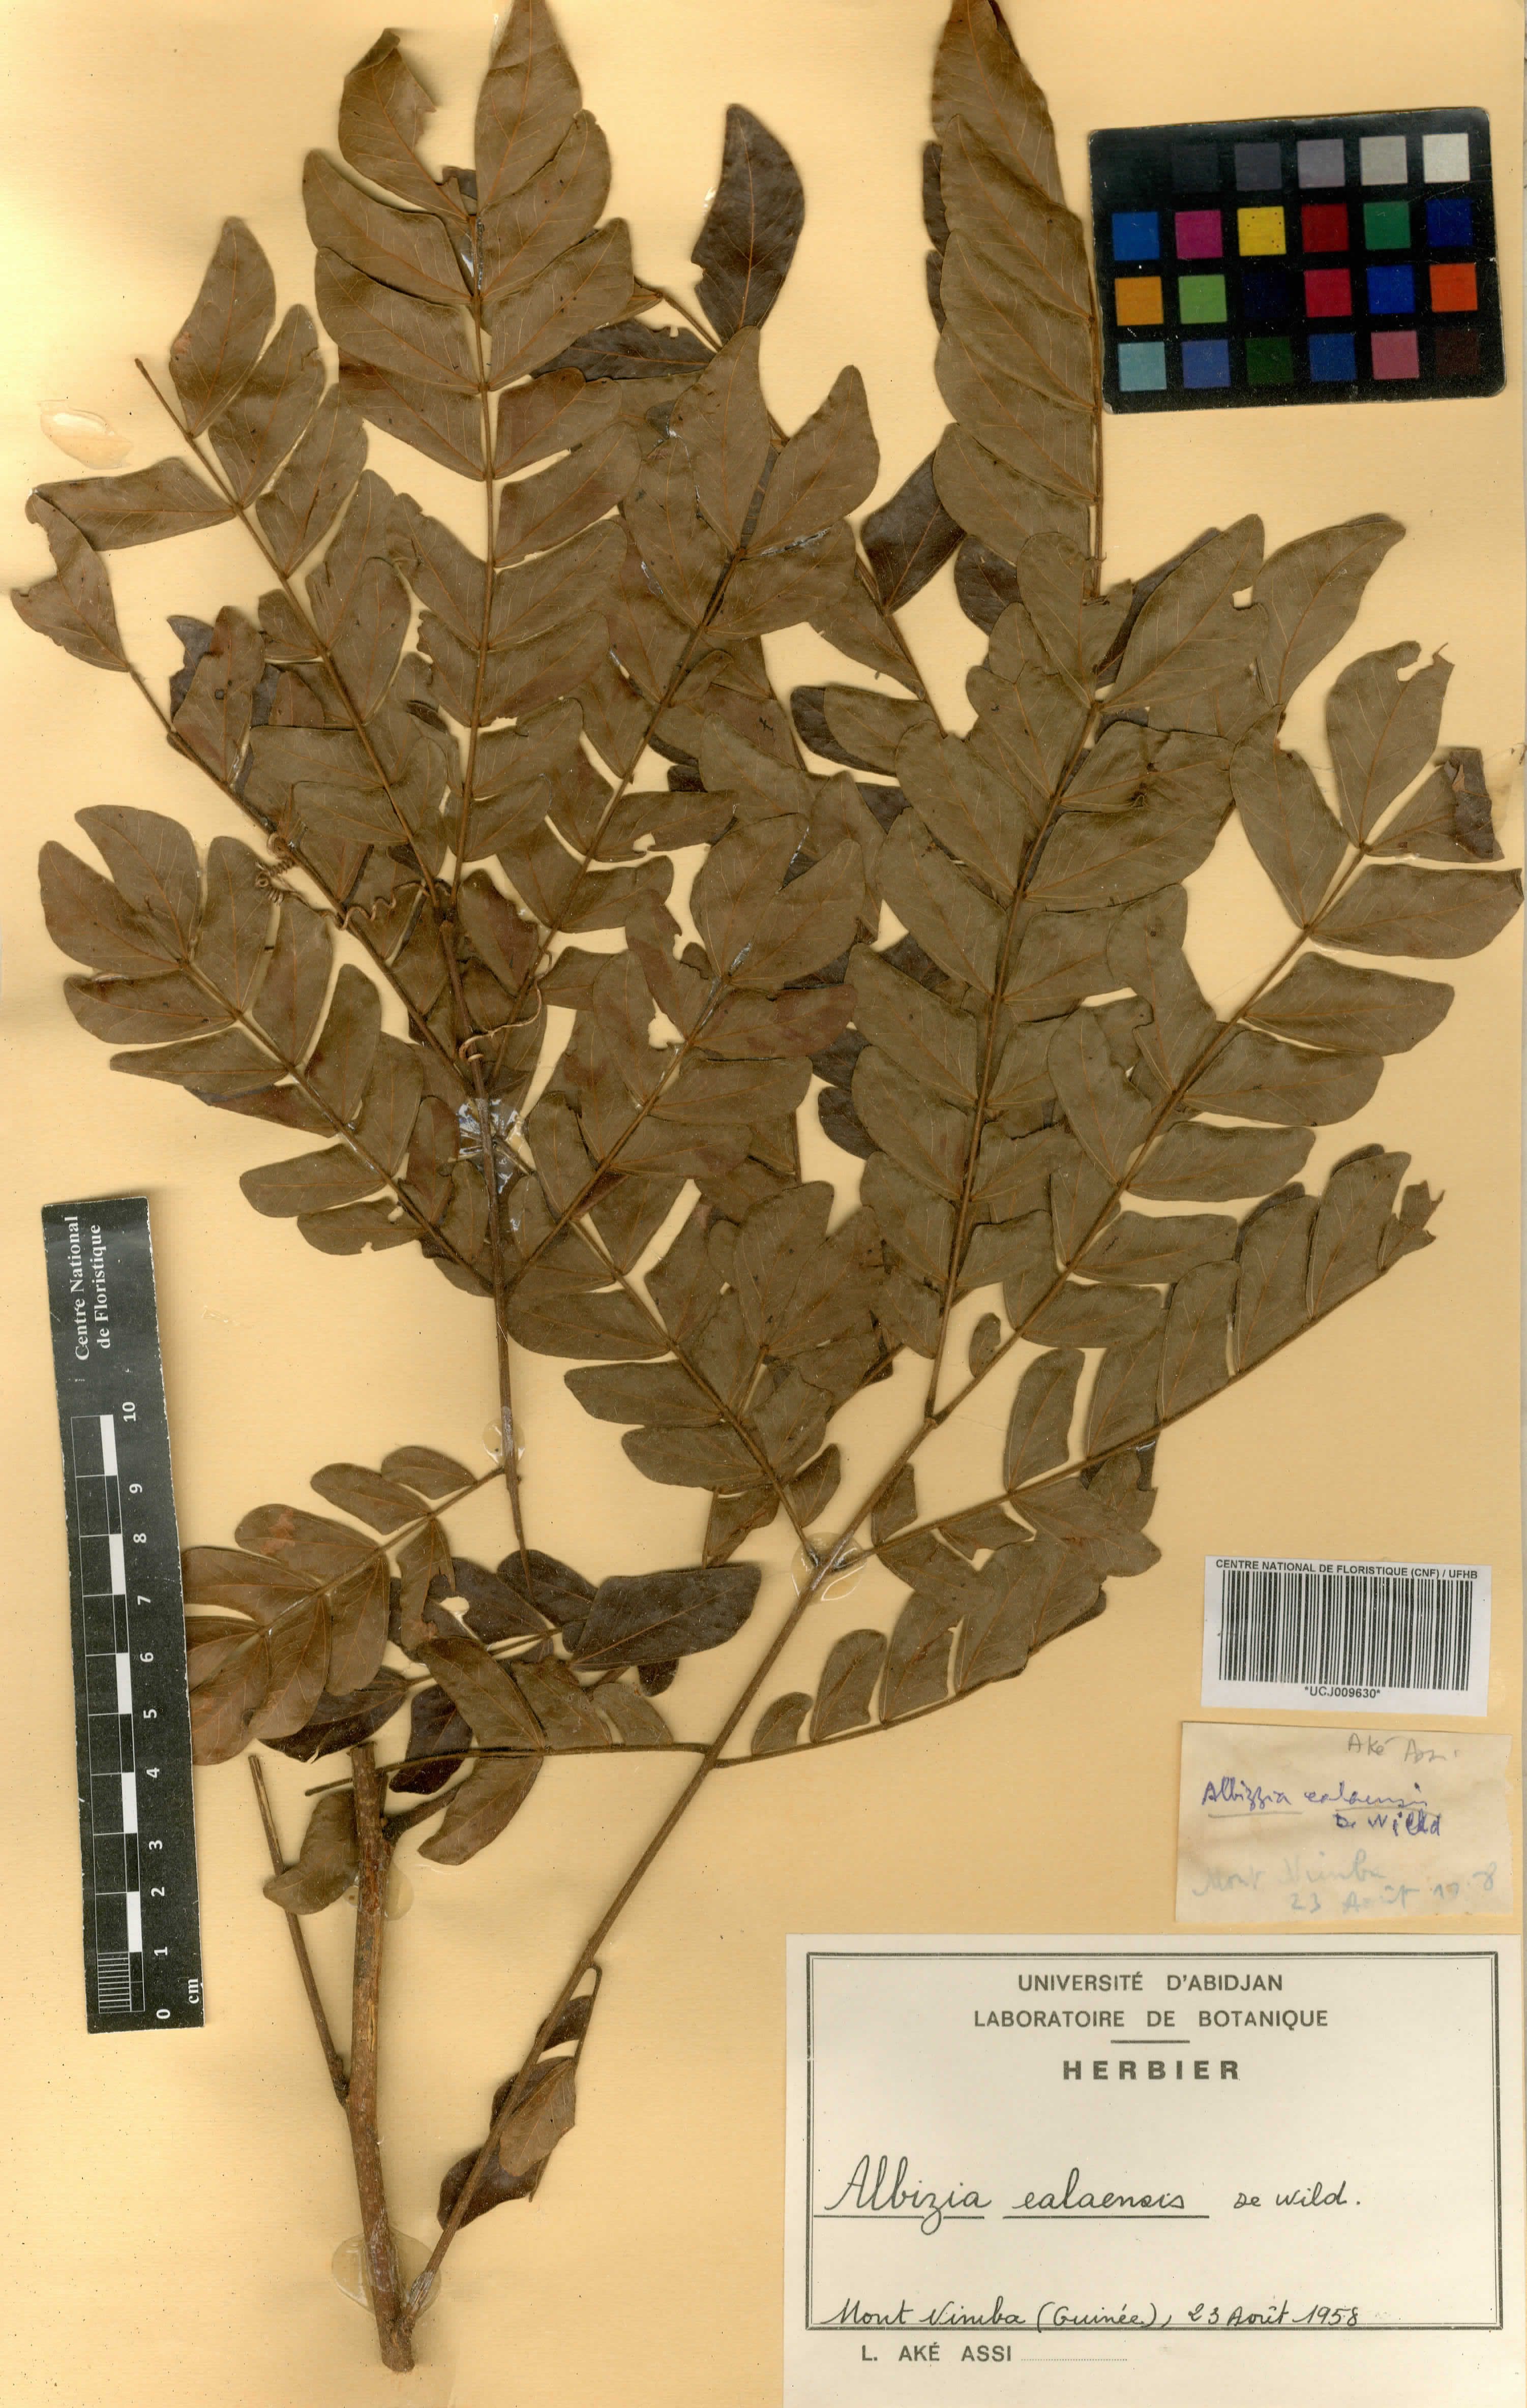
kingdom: Plantae
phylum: Tracheophyta
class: Magnoliopsida
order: Fabales
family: Fabaceae
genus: Albizia
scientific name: Albizia gummifera
